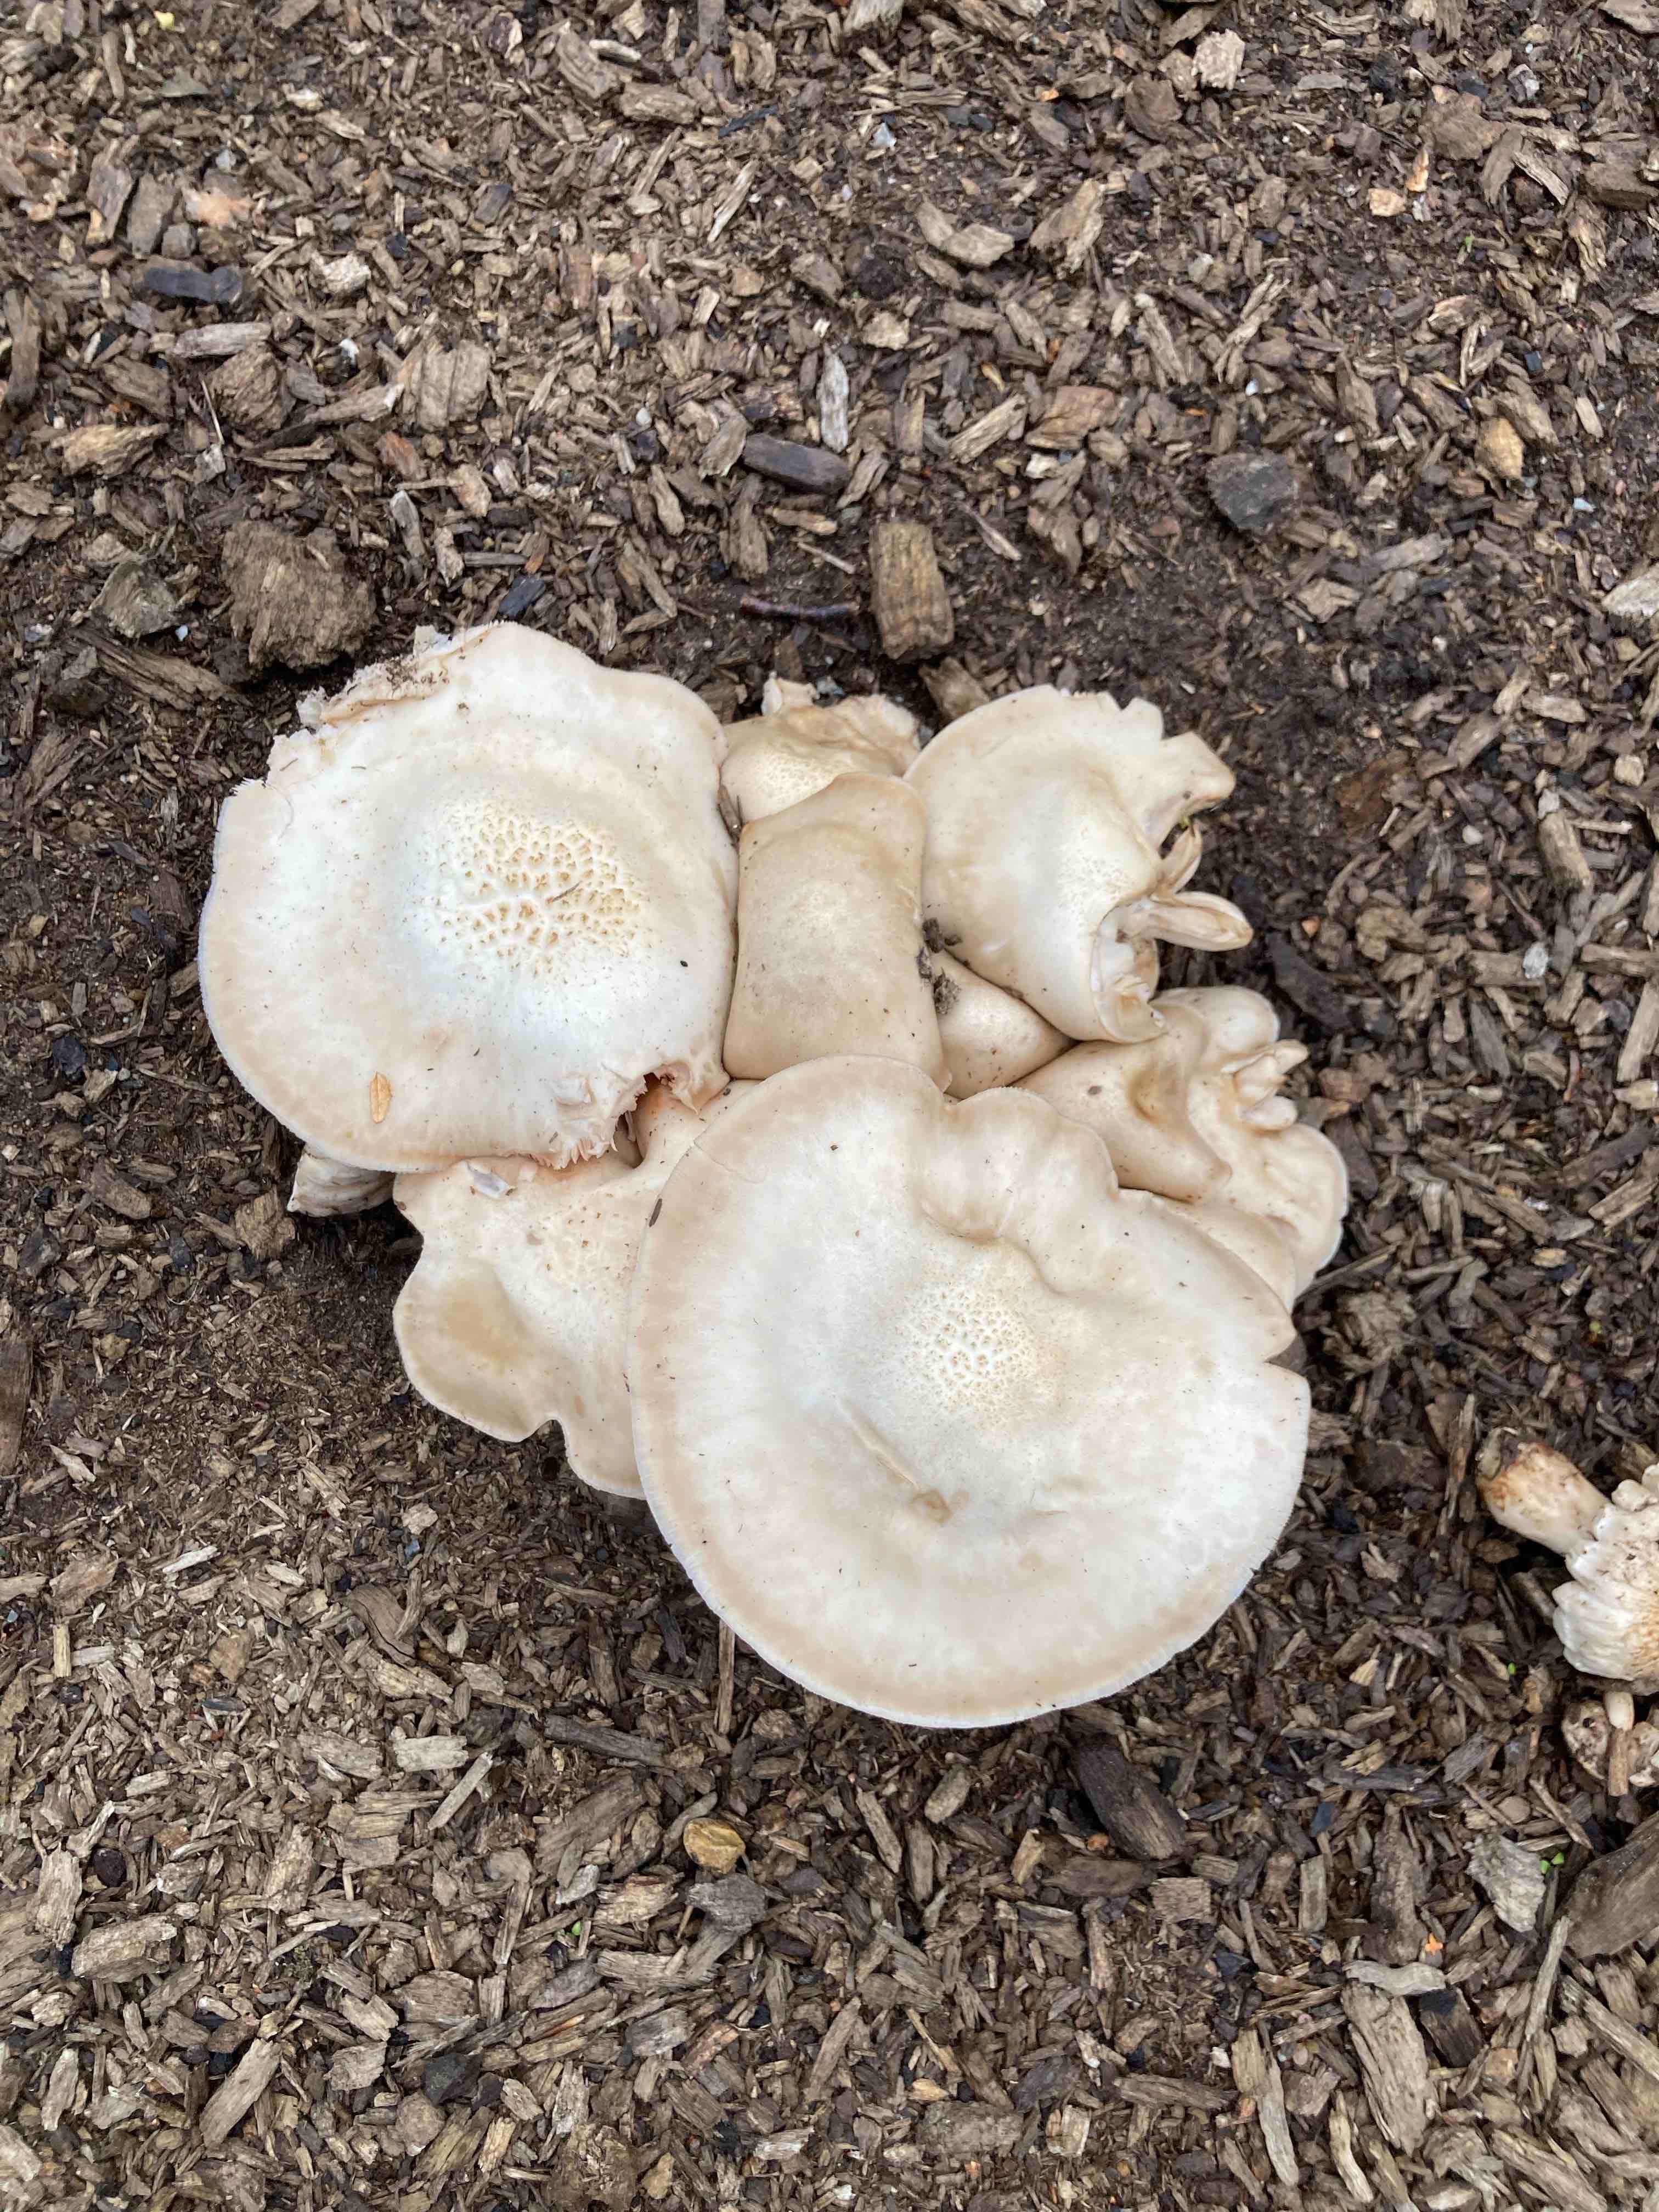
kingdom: Fungi
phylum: Basidiomycota
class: Agaricomycetes
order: Agaricales
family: Pluteaceae
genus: Pluteus
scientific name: Pluteus petasatus
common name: savsmulds-skærmhat
